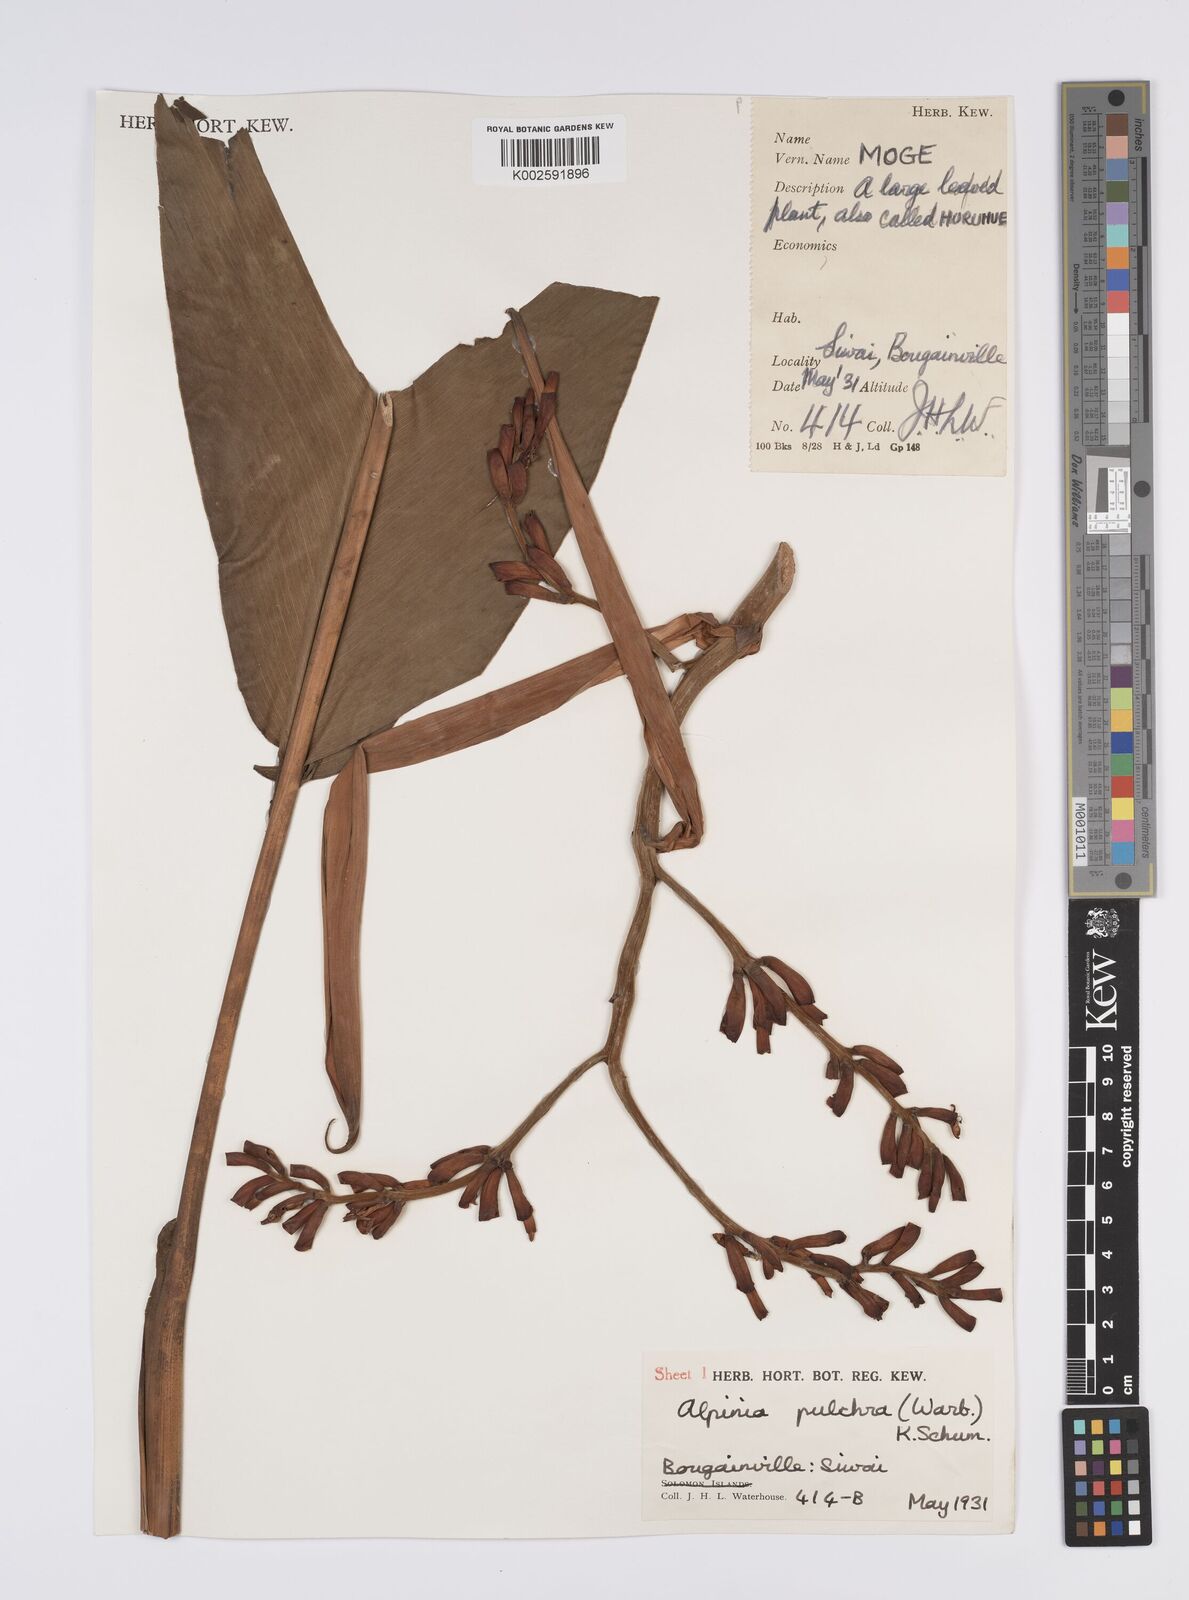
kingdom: Plantae
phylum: Tracheophyta
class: Liliopsida
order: Zingiberales
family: Zingiberaceae
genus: Alpinia
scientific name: Alpinia pulchra
